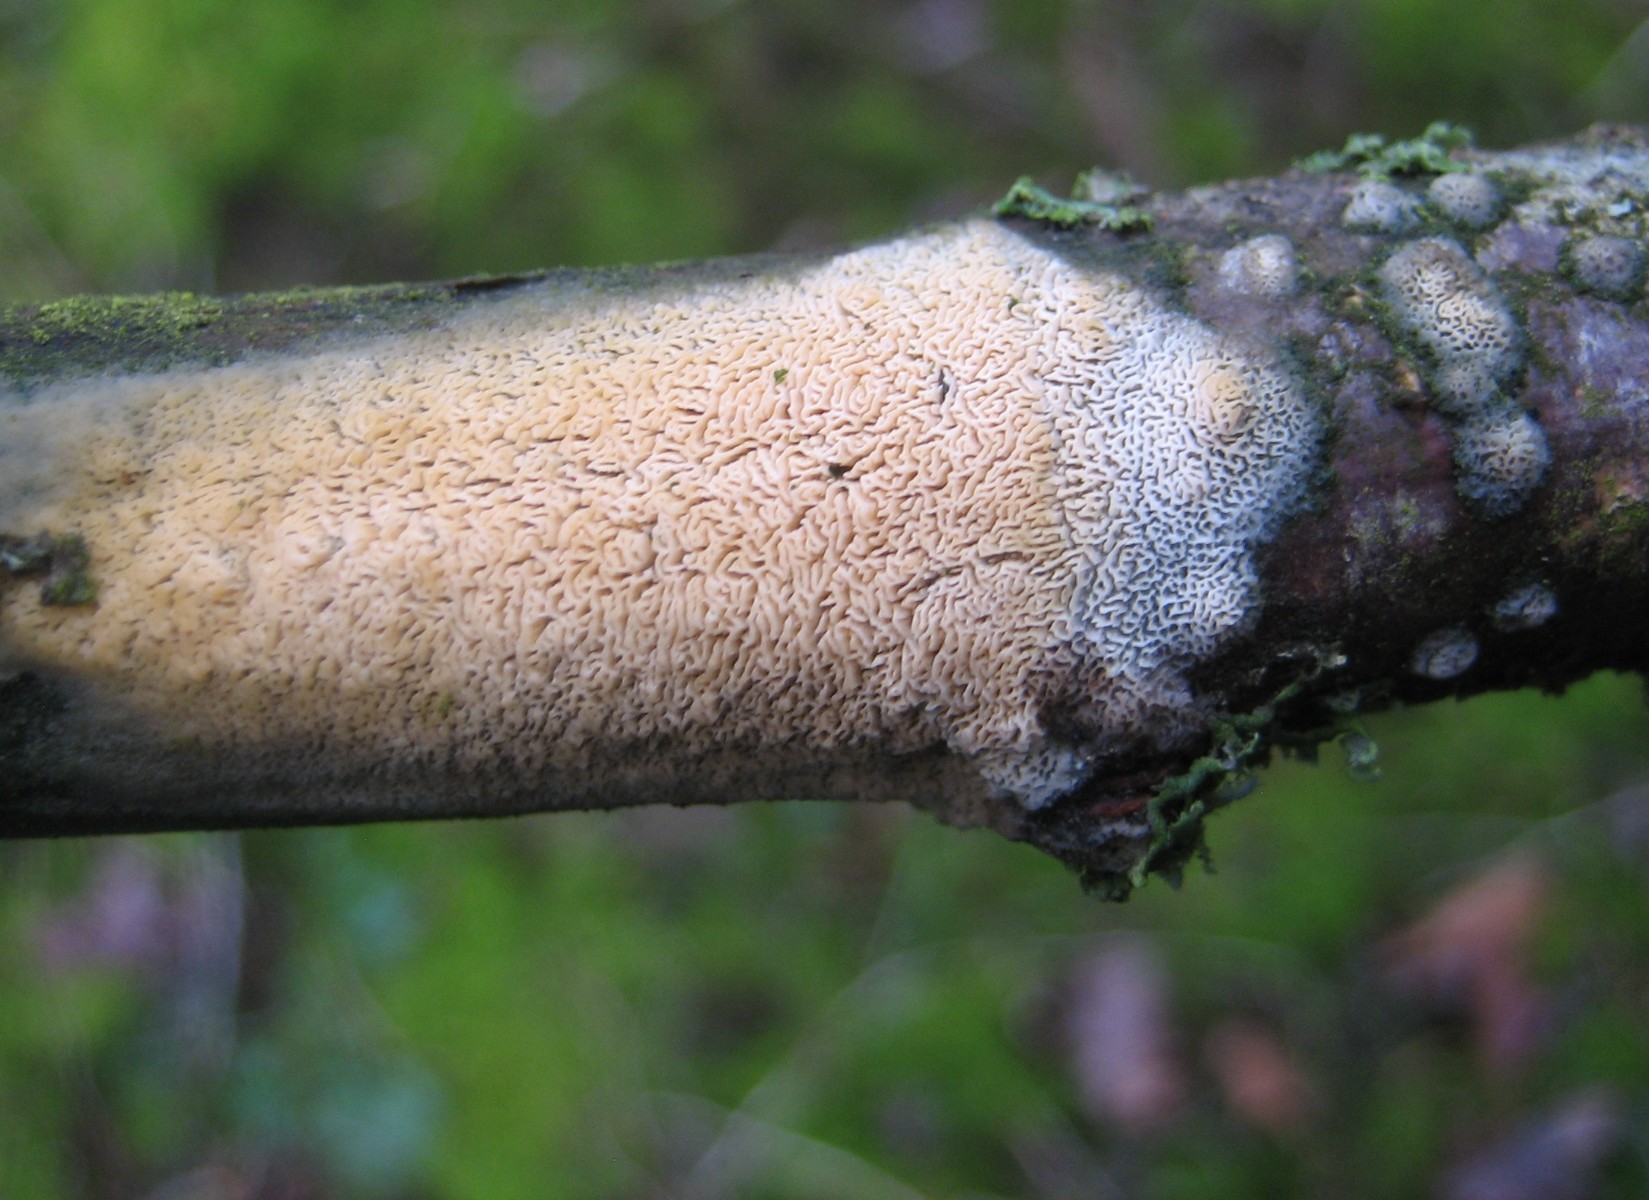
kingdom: Fungi
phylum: Basidiomycota
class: Agaricomycetes
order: Hymenochaetales
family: Schizoporaceae
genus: Xylodon
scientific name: Xylodon subtropicus
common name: labyrint-tandsvamp
